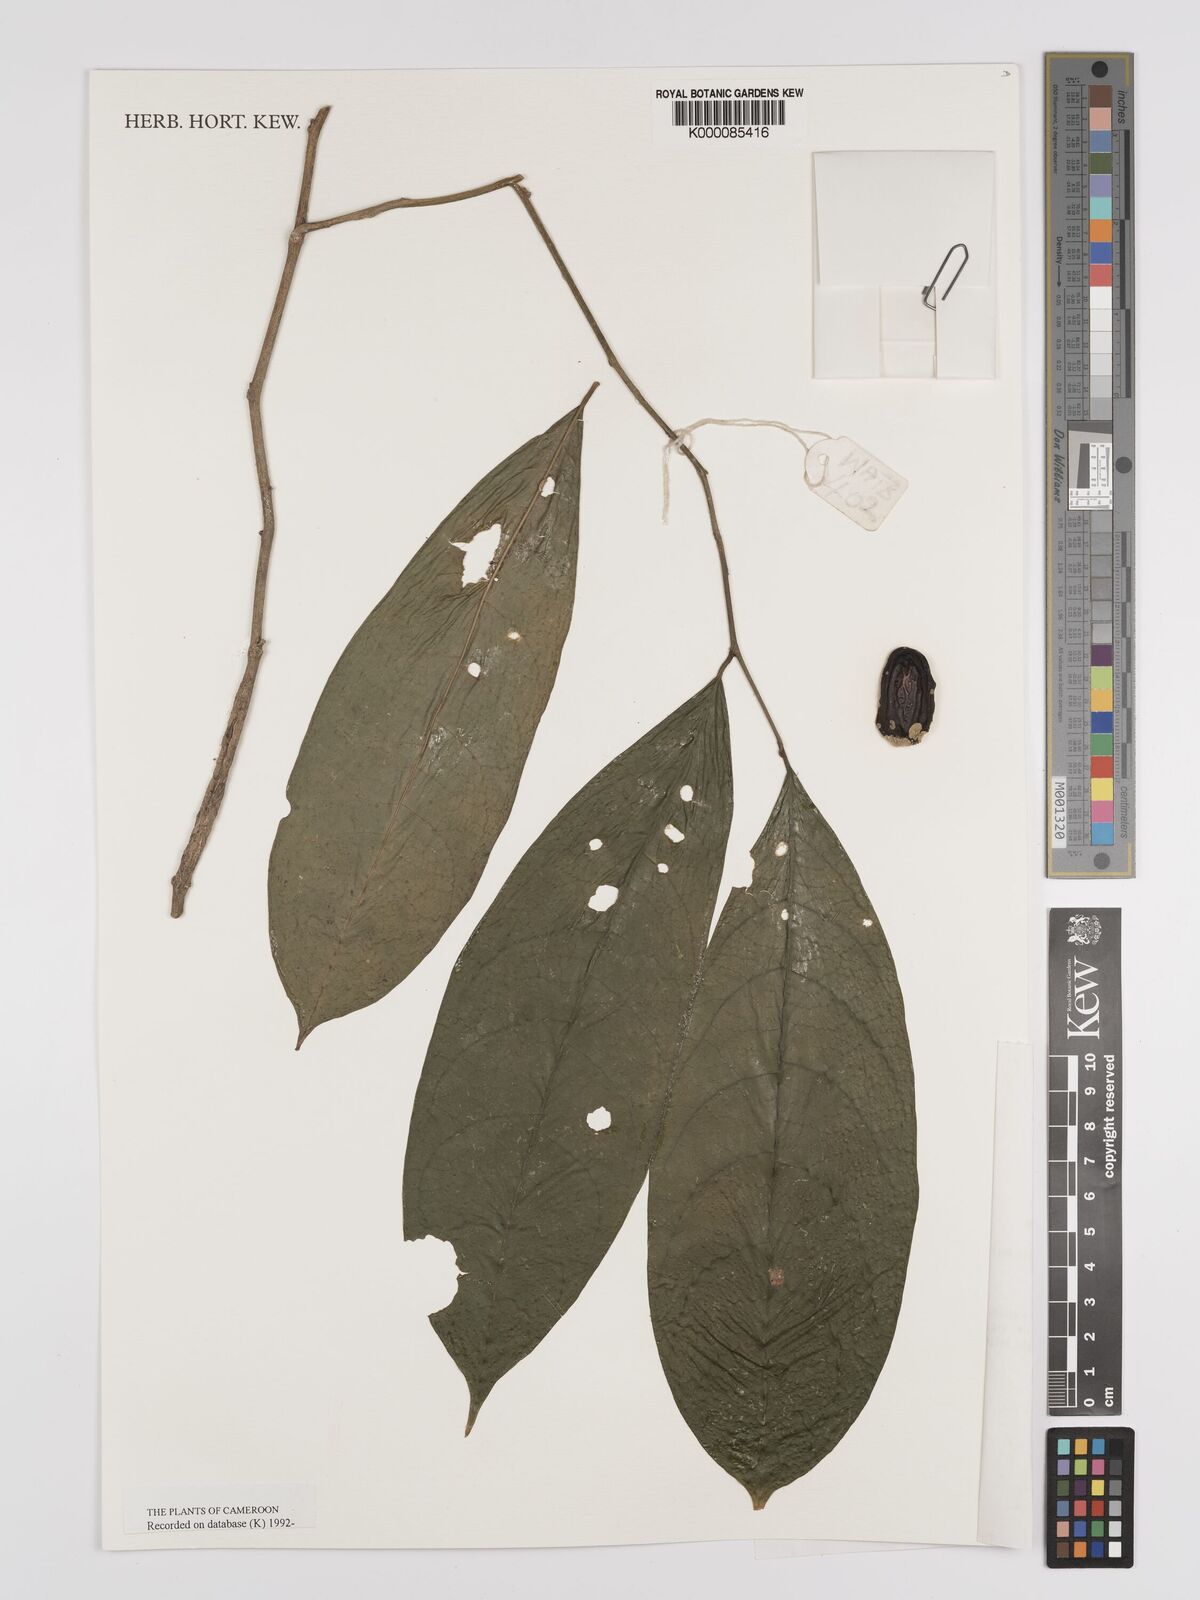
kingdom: Plantae
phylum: Tracheophyta
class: Magnoliopsida
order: Icacinales
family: Icacinaceae
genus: Vadensea
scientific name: Vadensea tenuifolia
